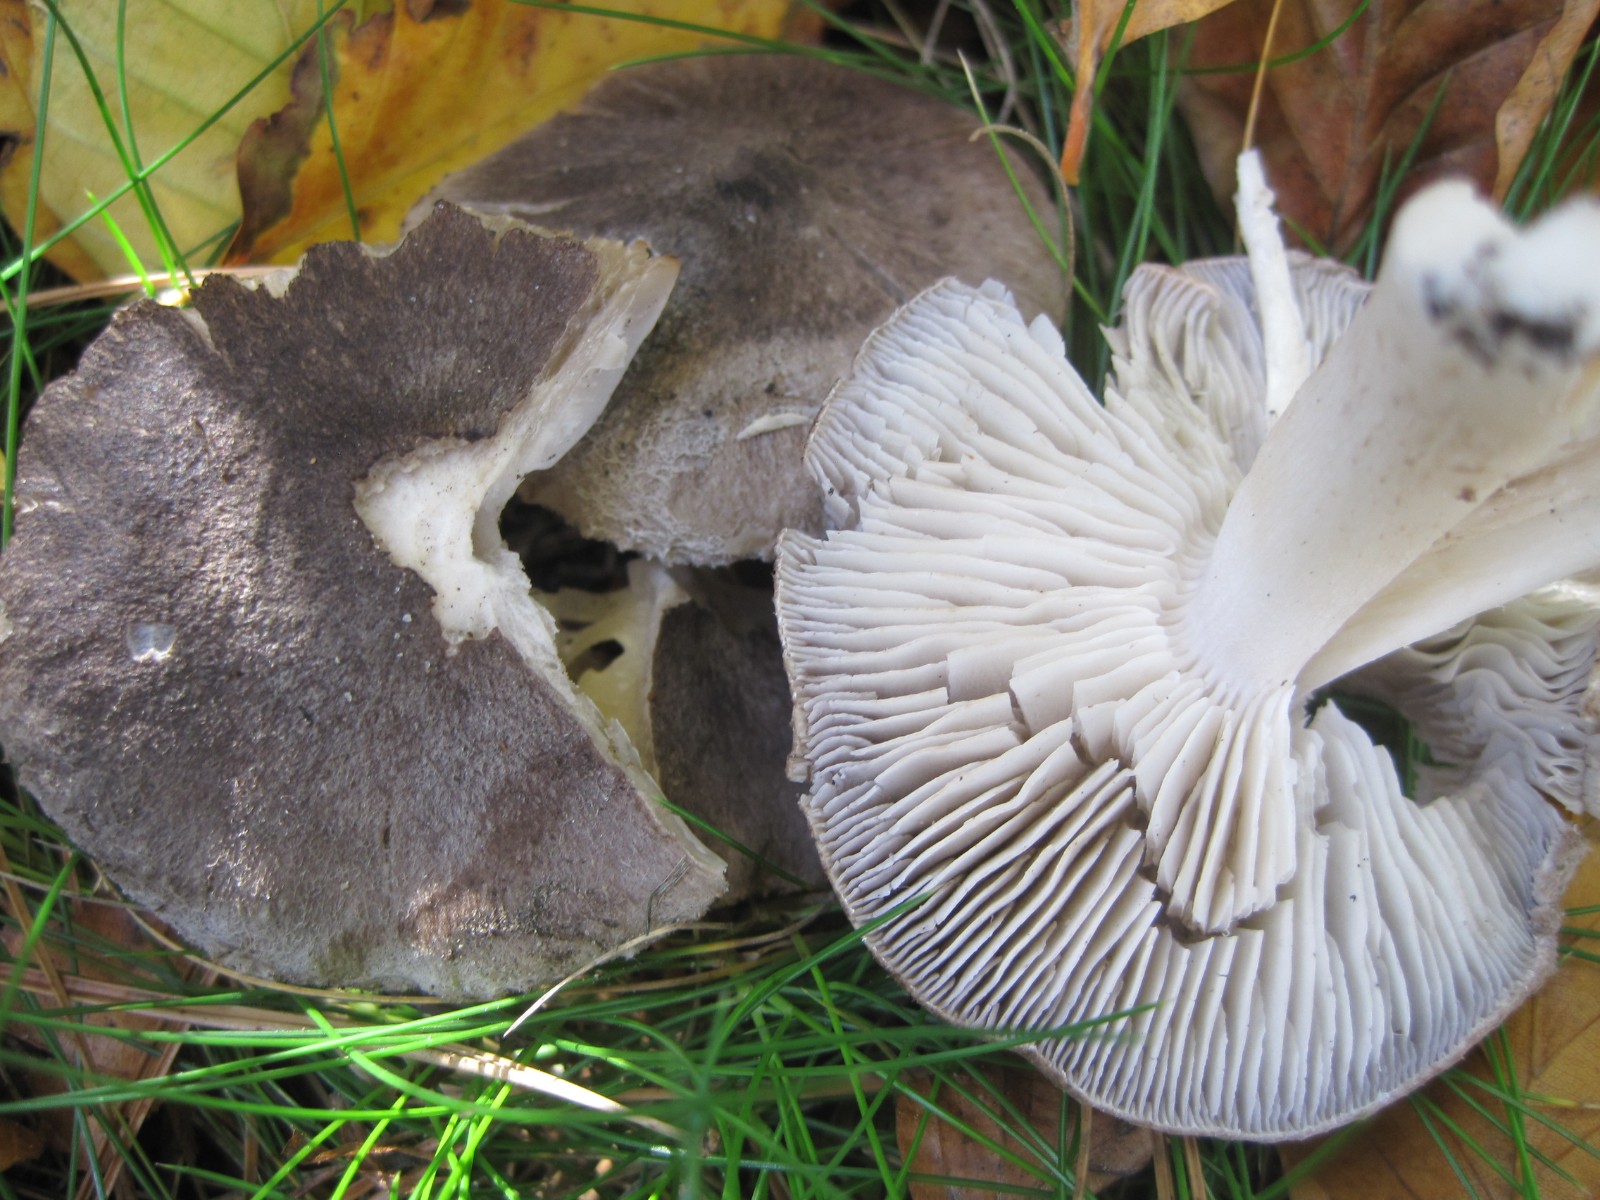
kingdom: Fungi
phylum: Basidiomycota
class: Agaricomycetes
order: Agaricales
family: Tricholomataceae
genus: Tricholoma
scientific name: Tricholoma terreum
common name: jordfarvet ridderhat
